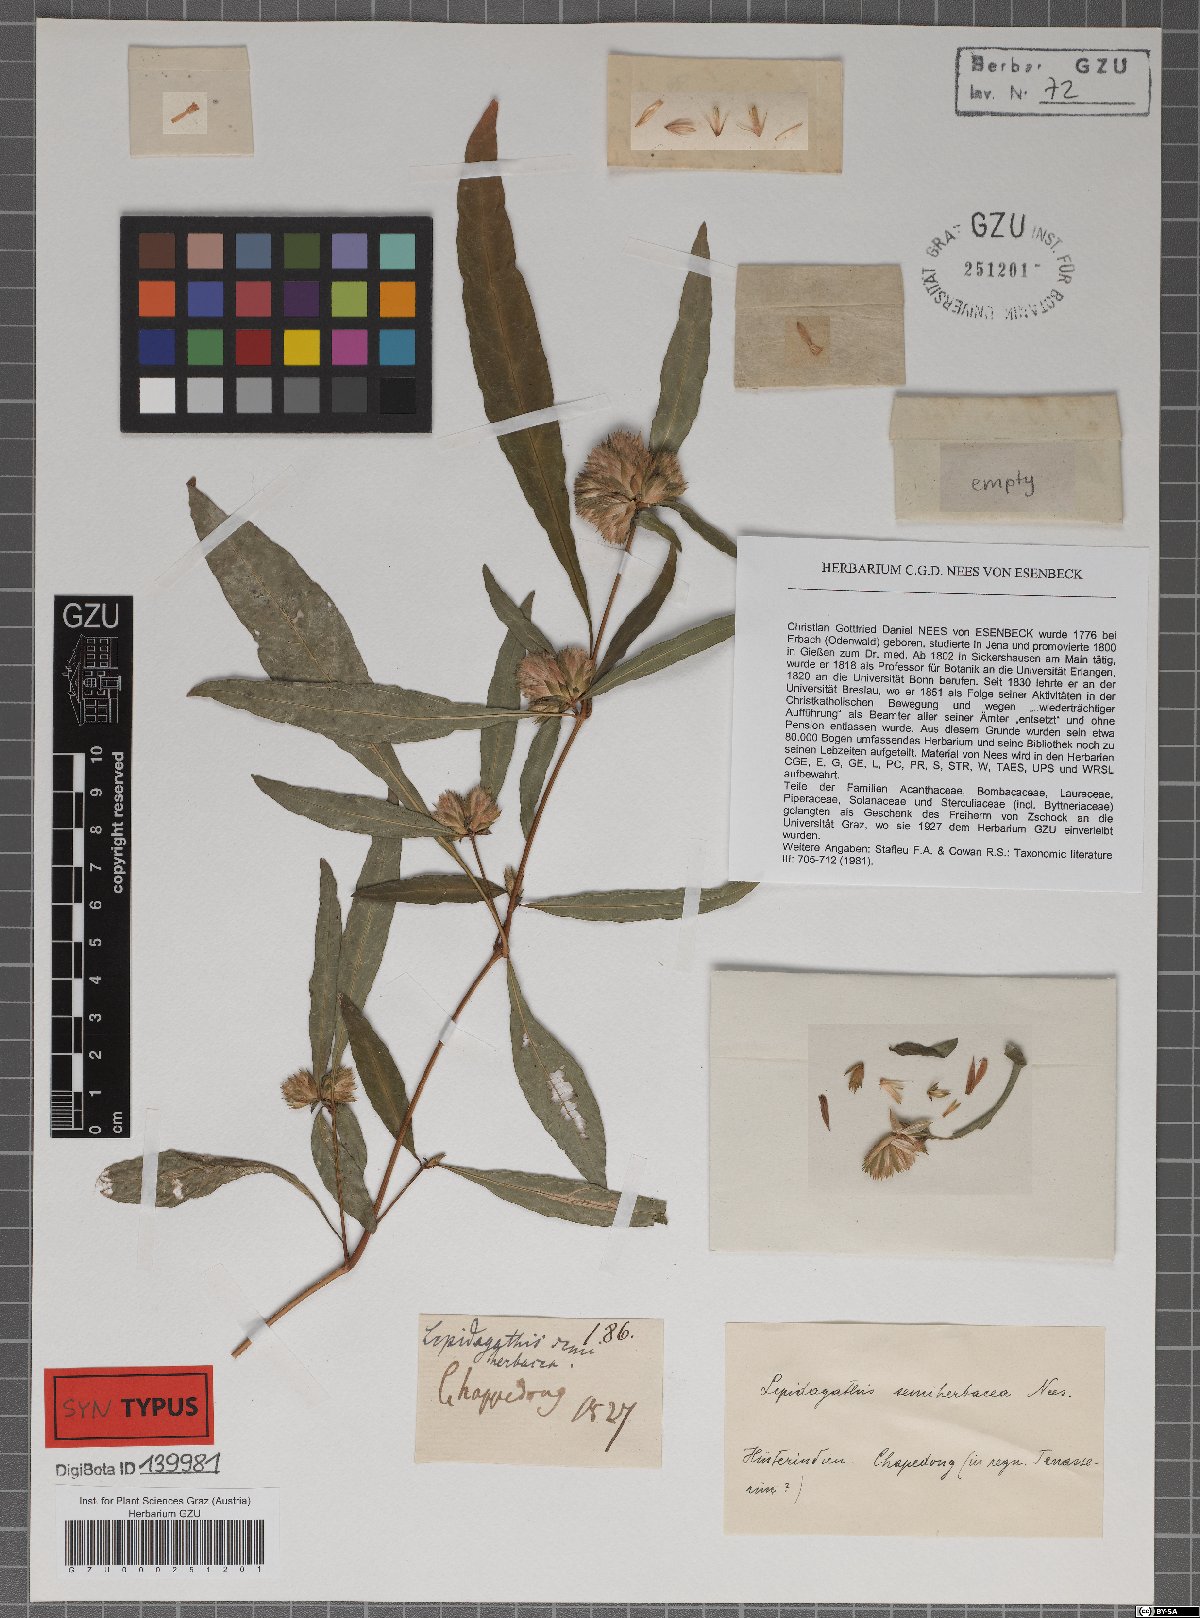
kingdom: Plantae
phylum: Tracheophyta
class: Magnoliopsida
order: Lamiales
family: Acanthaceae
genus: Lepidagathis
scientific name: Lepidagathis incurva
